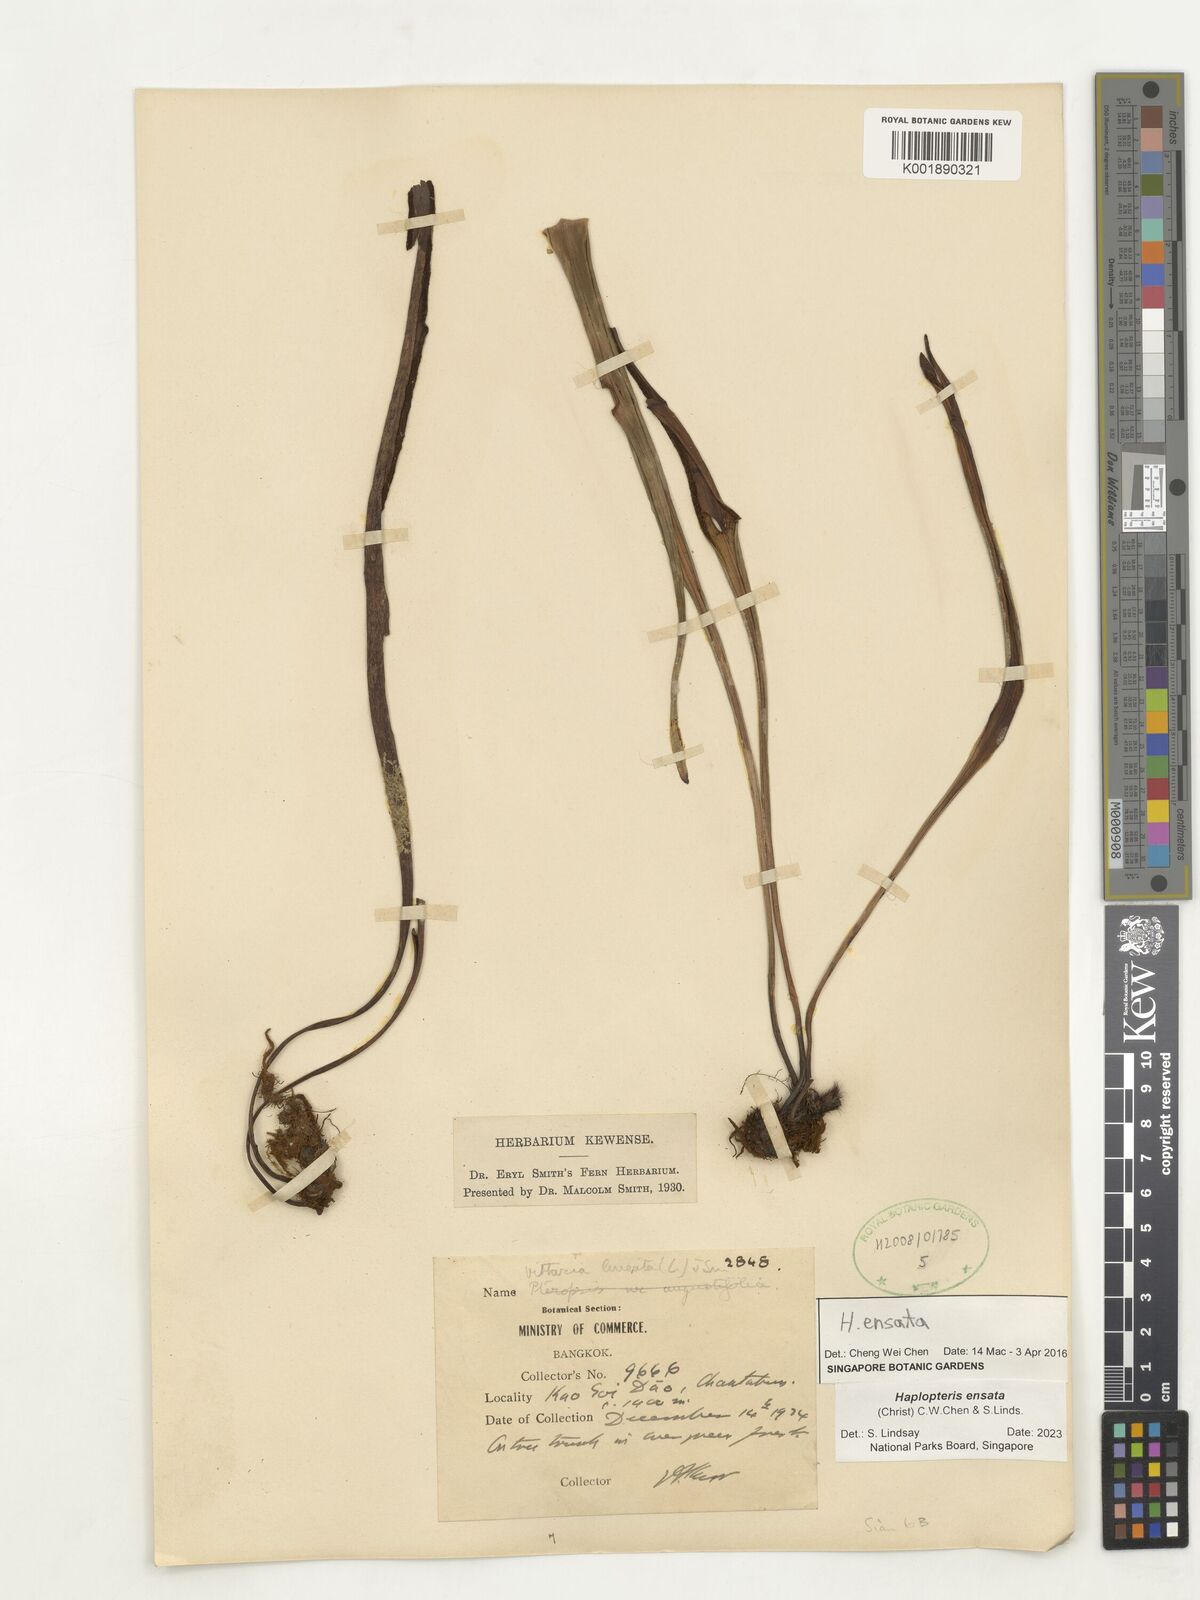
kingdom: Plantae
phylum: Tracheophyta
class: Polypodiopsida
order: Polypodiales
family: Pteridaceae
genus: Haplopteris
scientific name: Haplopteris ensata
